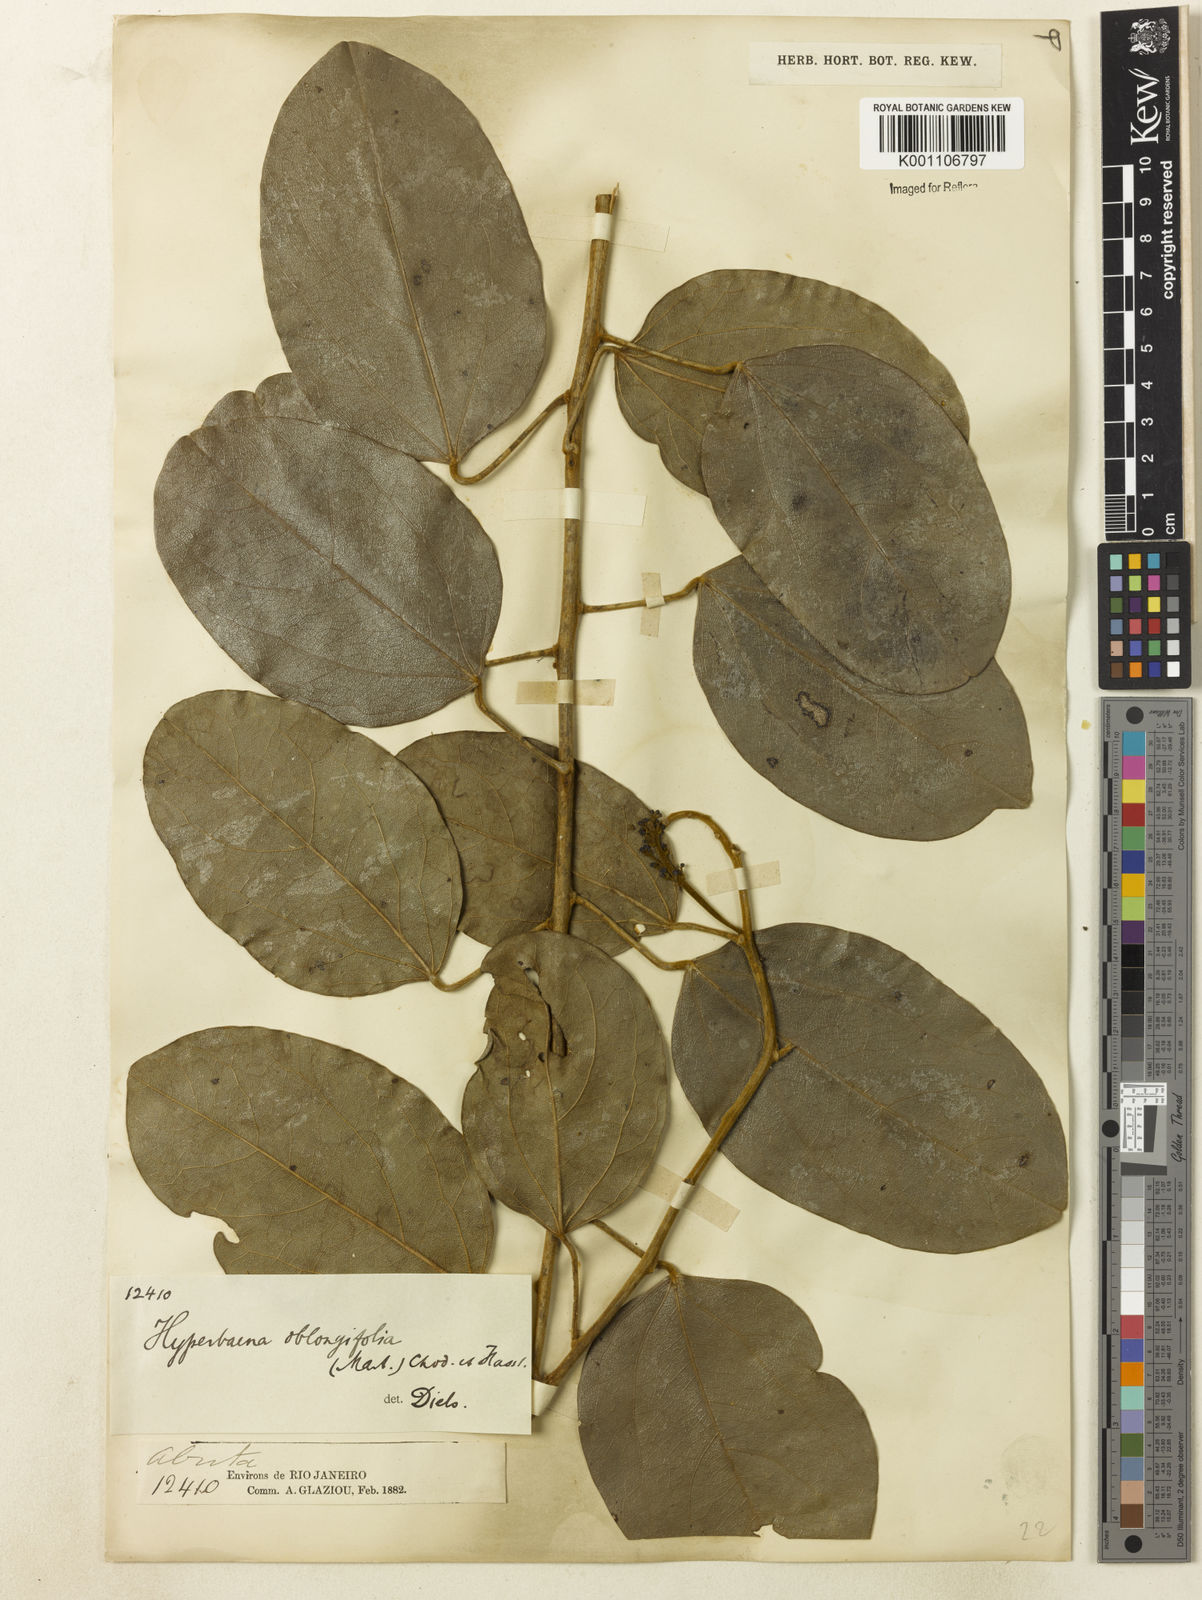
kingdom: Plantae
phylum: Tracheophyta
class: Magnoliopsida
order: Ranunculales
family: Menispermaceae
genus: Hyperbaena
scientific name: Hyperbaena hassleri
